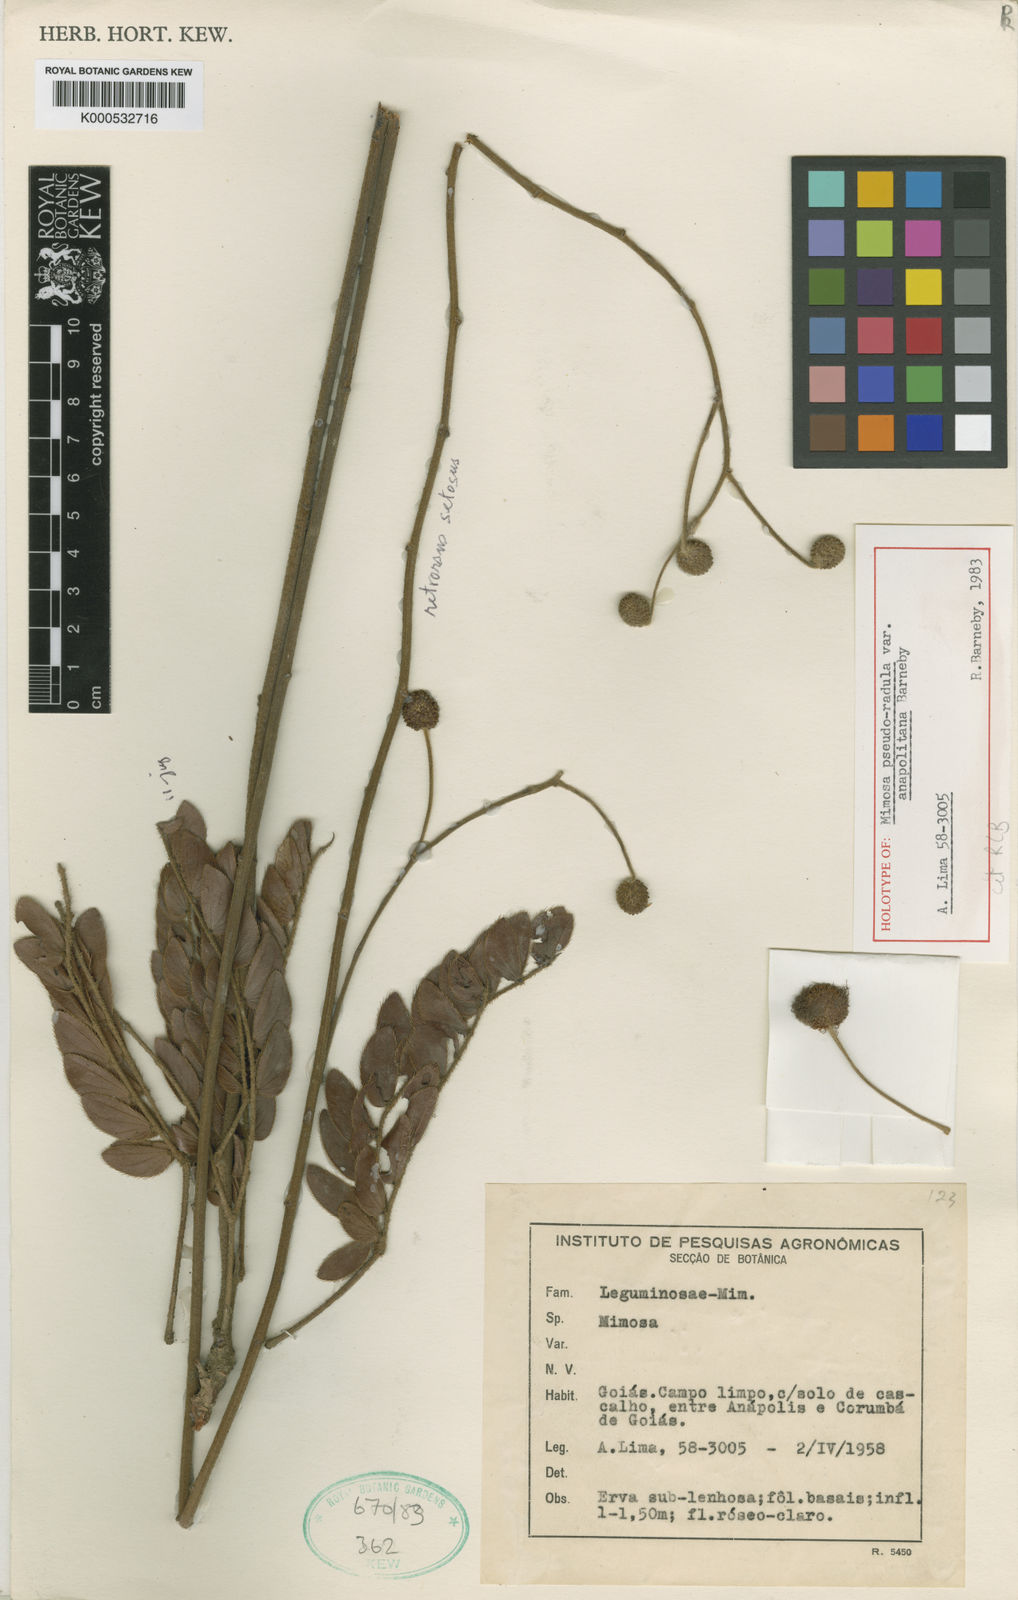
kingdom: Plantae
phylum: Tracheophyta
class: Magnoliopsida
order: Fabales
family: Fabaceae
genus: Mimosa
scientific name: Mimosa detonsa
